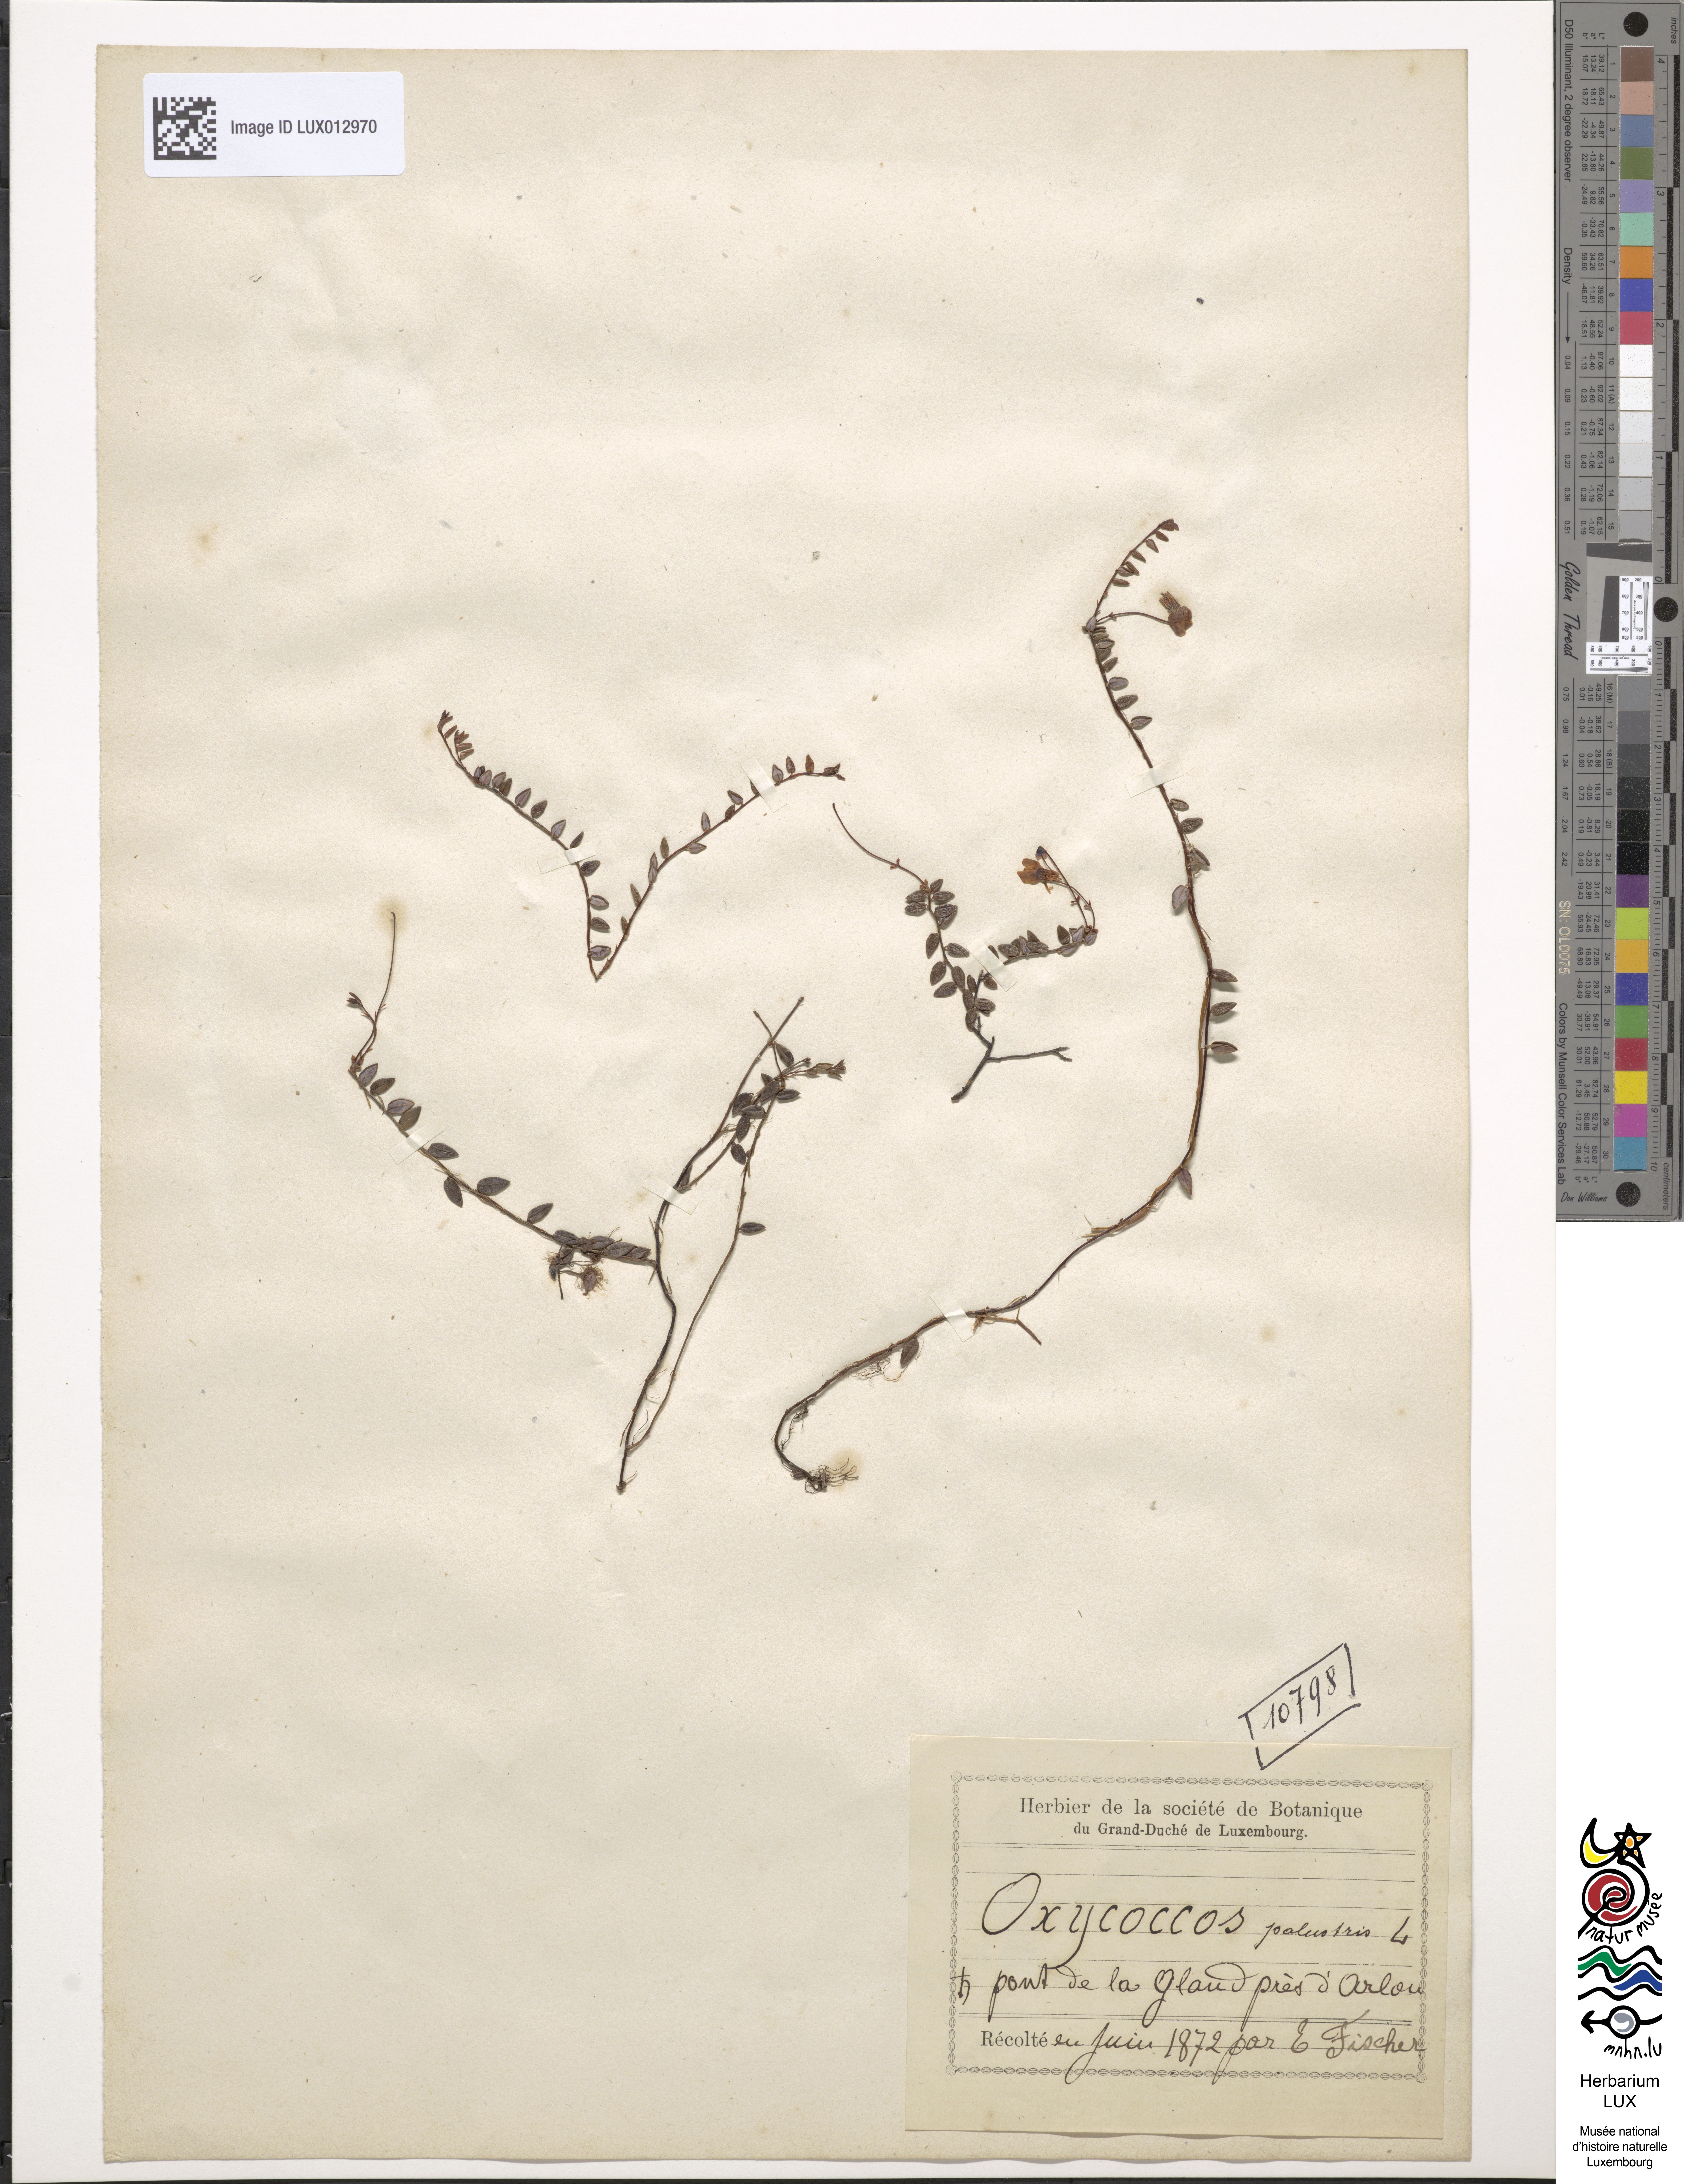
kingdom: Plantae
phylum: Tracheophyta
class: Magnoliopsida
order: Ericales
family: Ericaceae
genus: Vaccinium
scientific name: Vaccinium oxycoccos
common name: Cranberry
